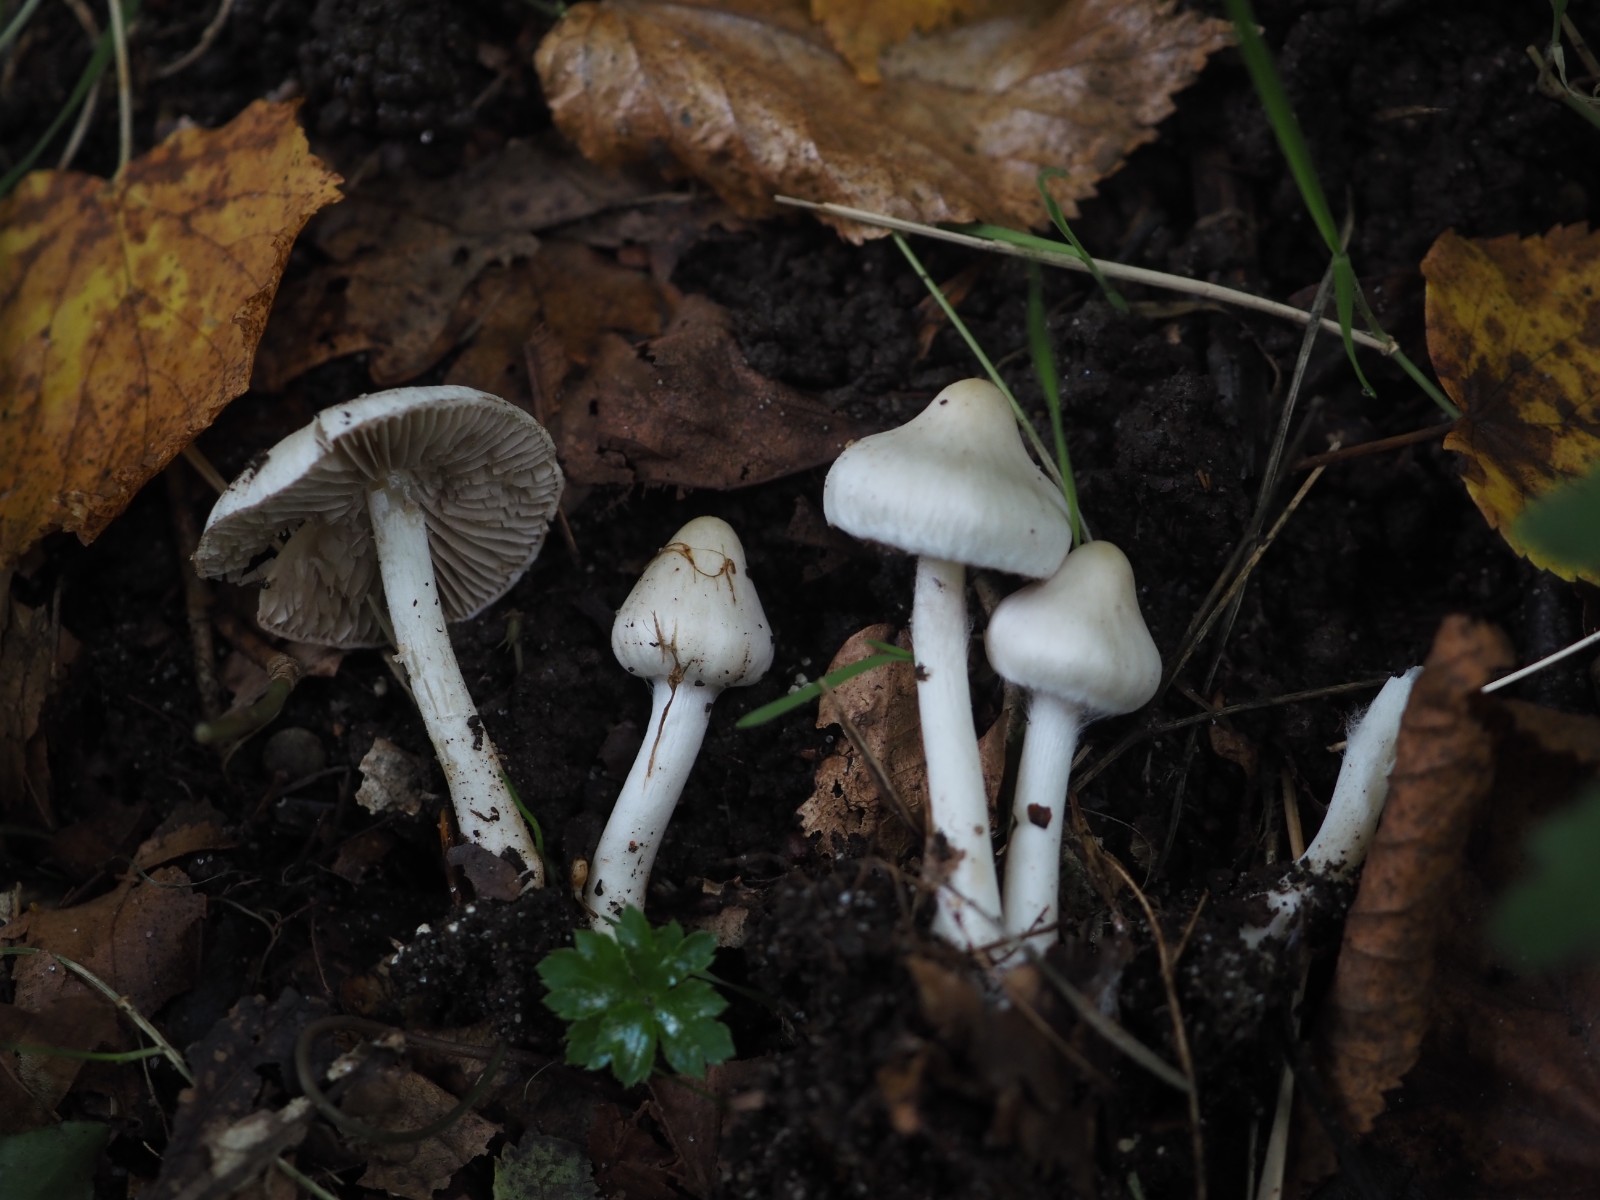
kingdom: Fungi
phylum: Basidiomycota
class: Agaricomycetes
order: Agaricales
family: Inocybaceae
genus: Inocybe
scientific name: Inocybe
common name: almindelig trævlhat
